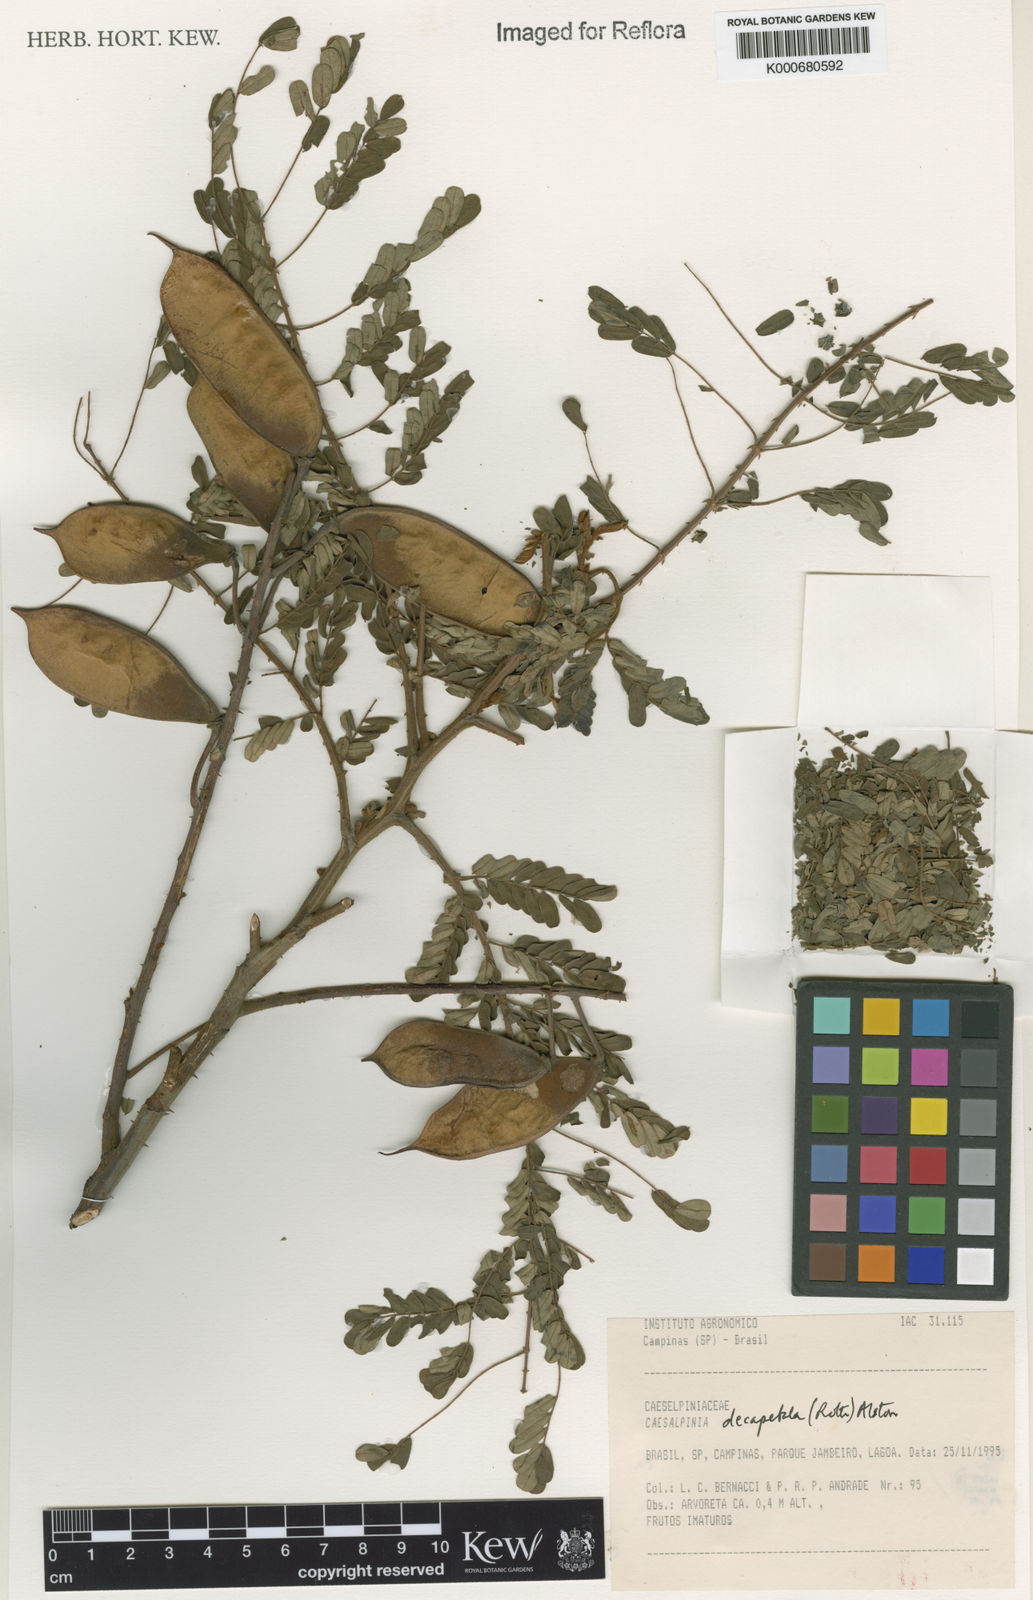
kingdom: Plantae
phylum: Tracheophyta
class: Magnoliopsida
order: Fabales
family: Fabaceae
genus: Biancaea
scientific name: Biancaea decapetala
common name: Cat's claw
